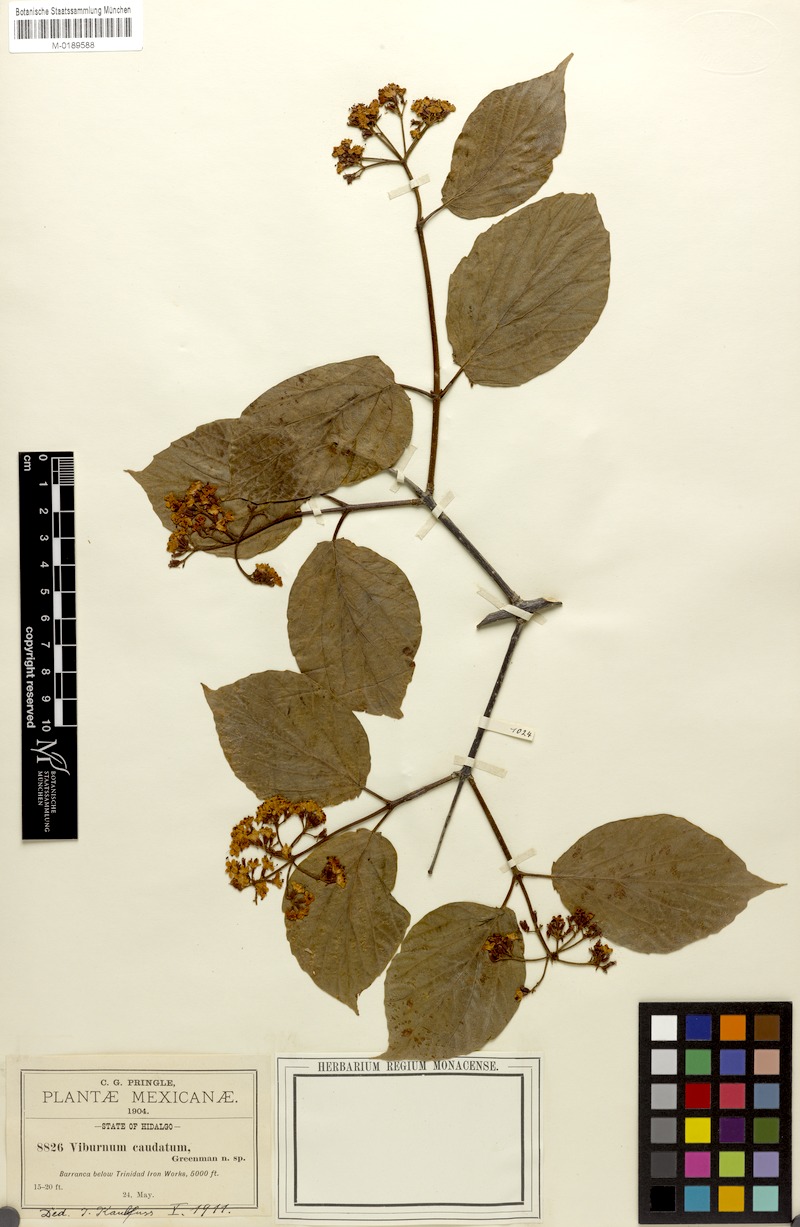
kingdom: Plantae
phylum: Tracheophyta
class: Magnoliopsida
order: Dipsacales
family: Viburnaceae
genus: Viburnum
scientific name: Viburnum caudatum
